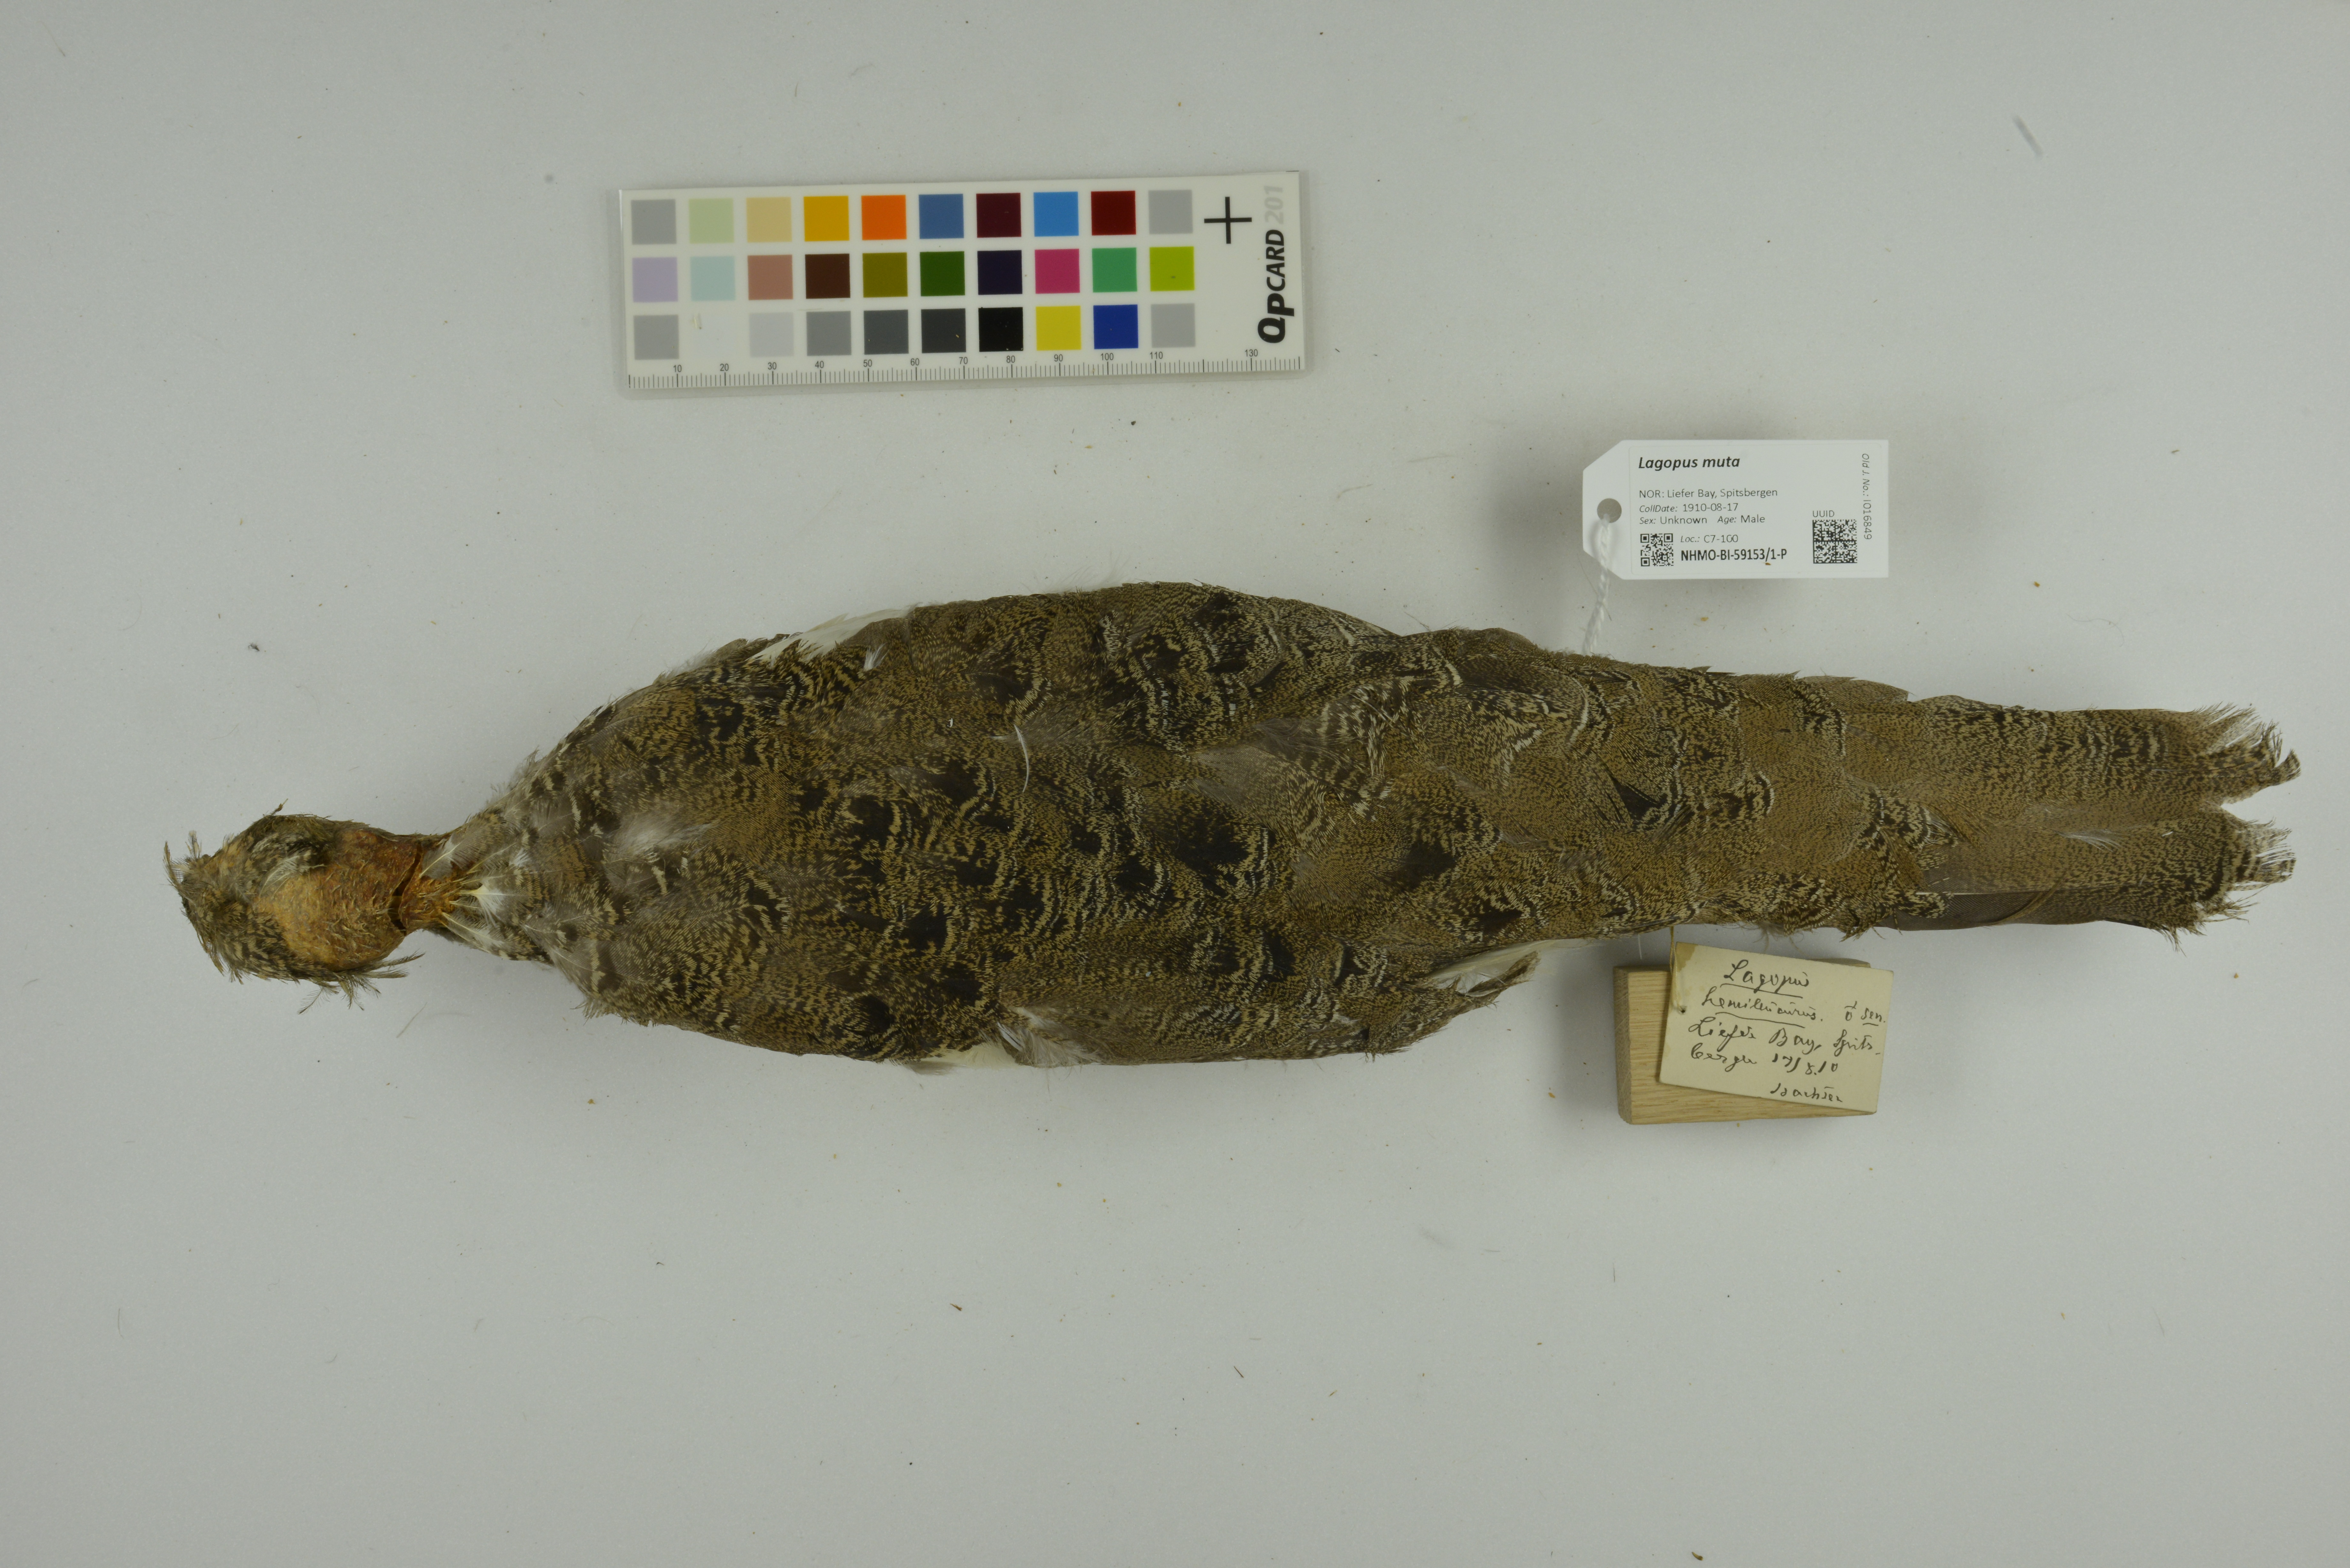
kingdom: Animalia
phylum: Chordata
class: Aves
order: Galliformes
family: Phasianidae
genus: Lagopus
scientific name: Lagopus muta
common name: Rock ptarmigan
